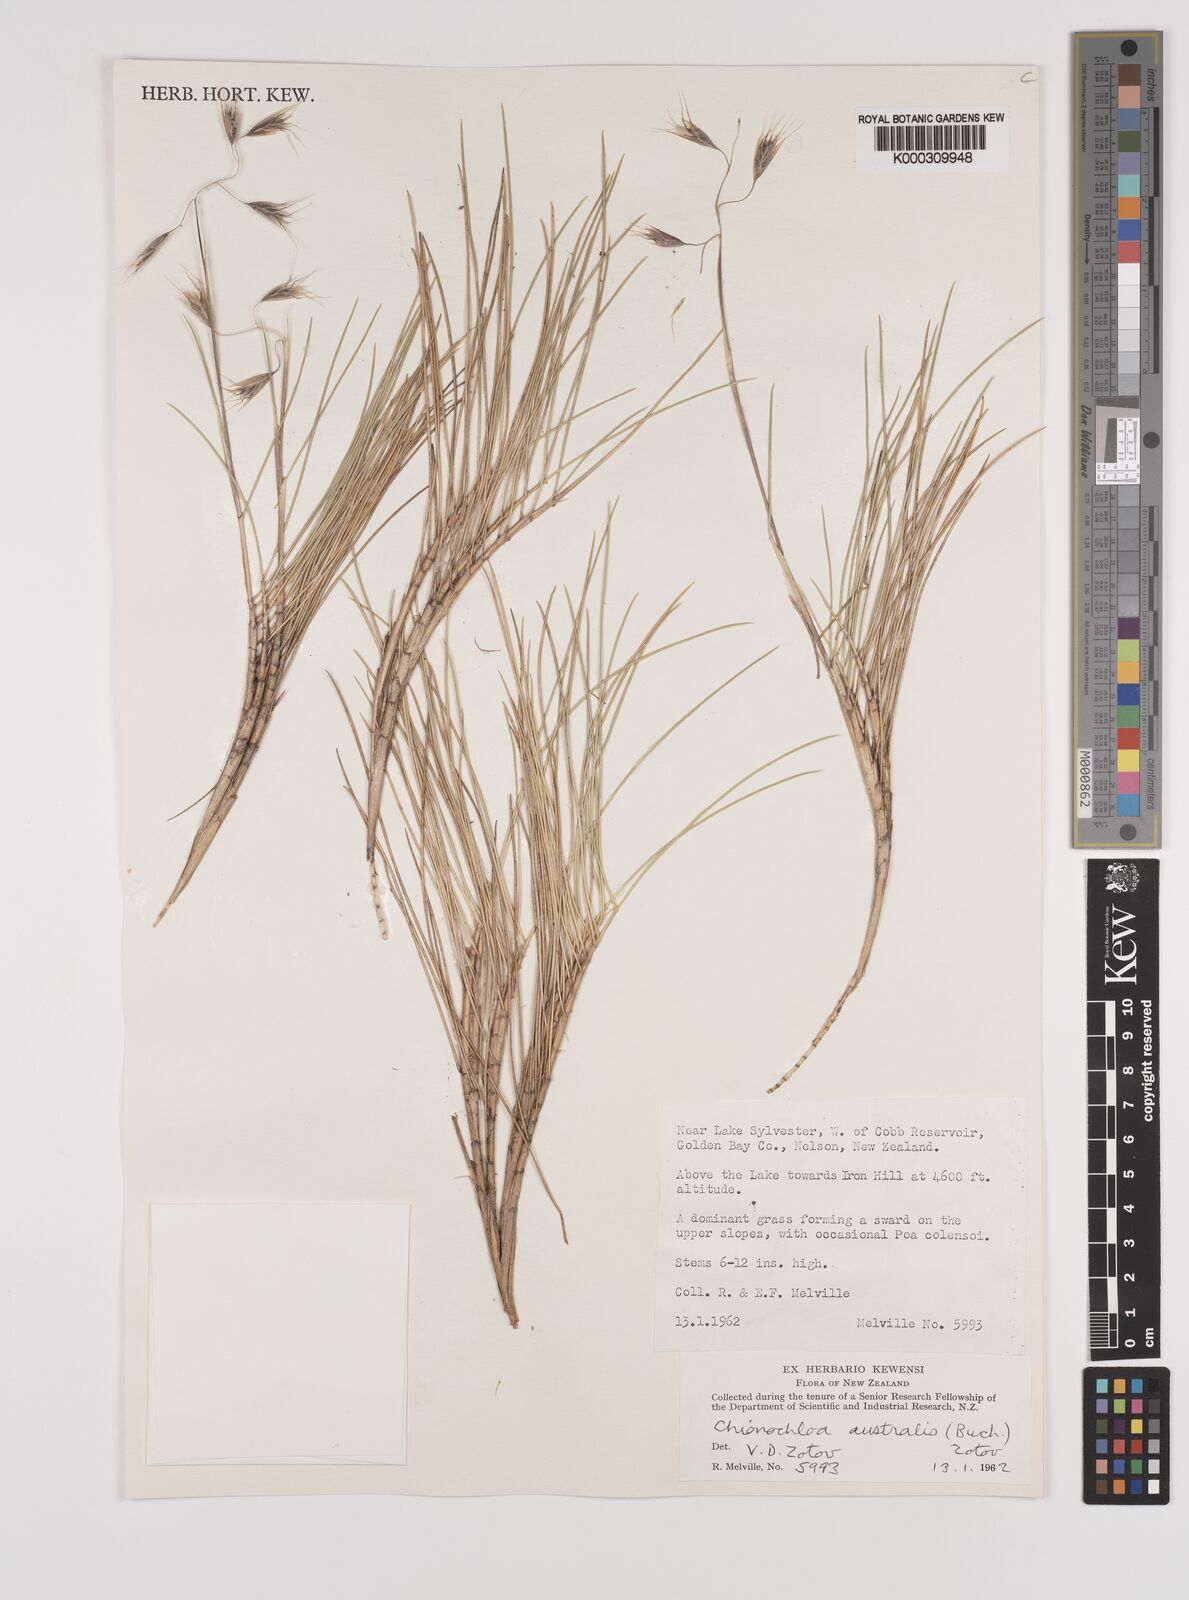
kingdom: Plantae
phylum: Tracheophyta
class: Liliopsida
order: Poales
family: Poaceae
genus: Chionochloa
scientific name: Chionochloa australis
